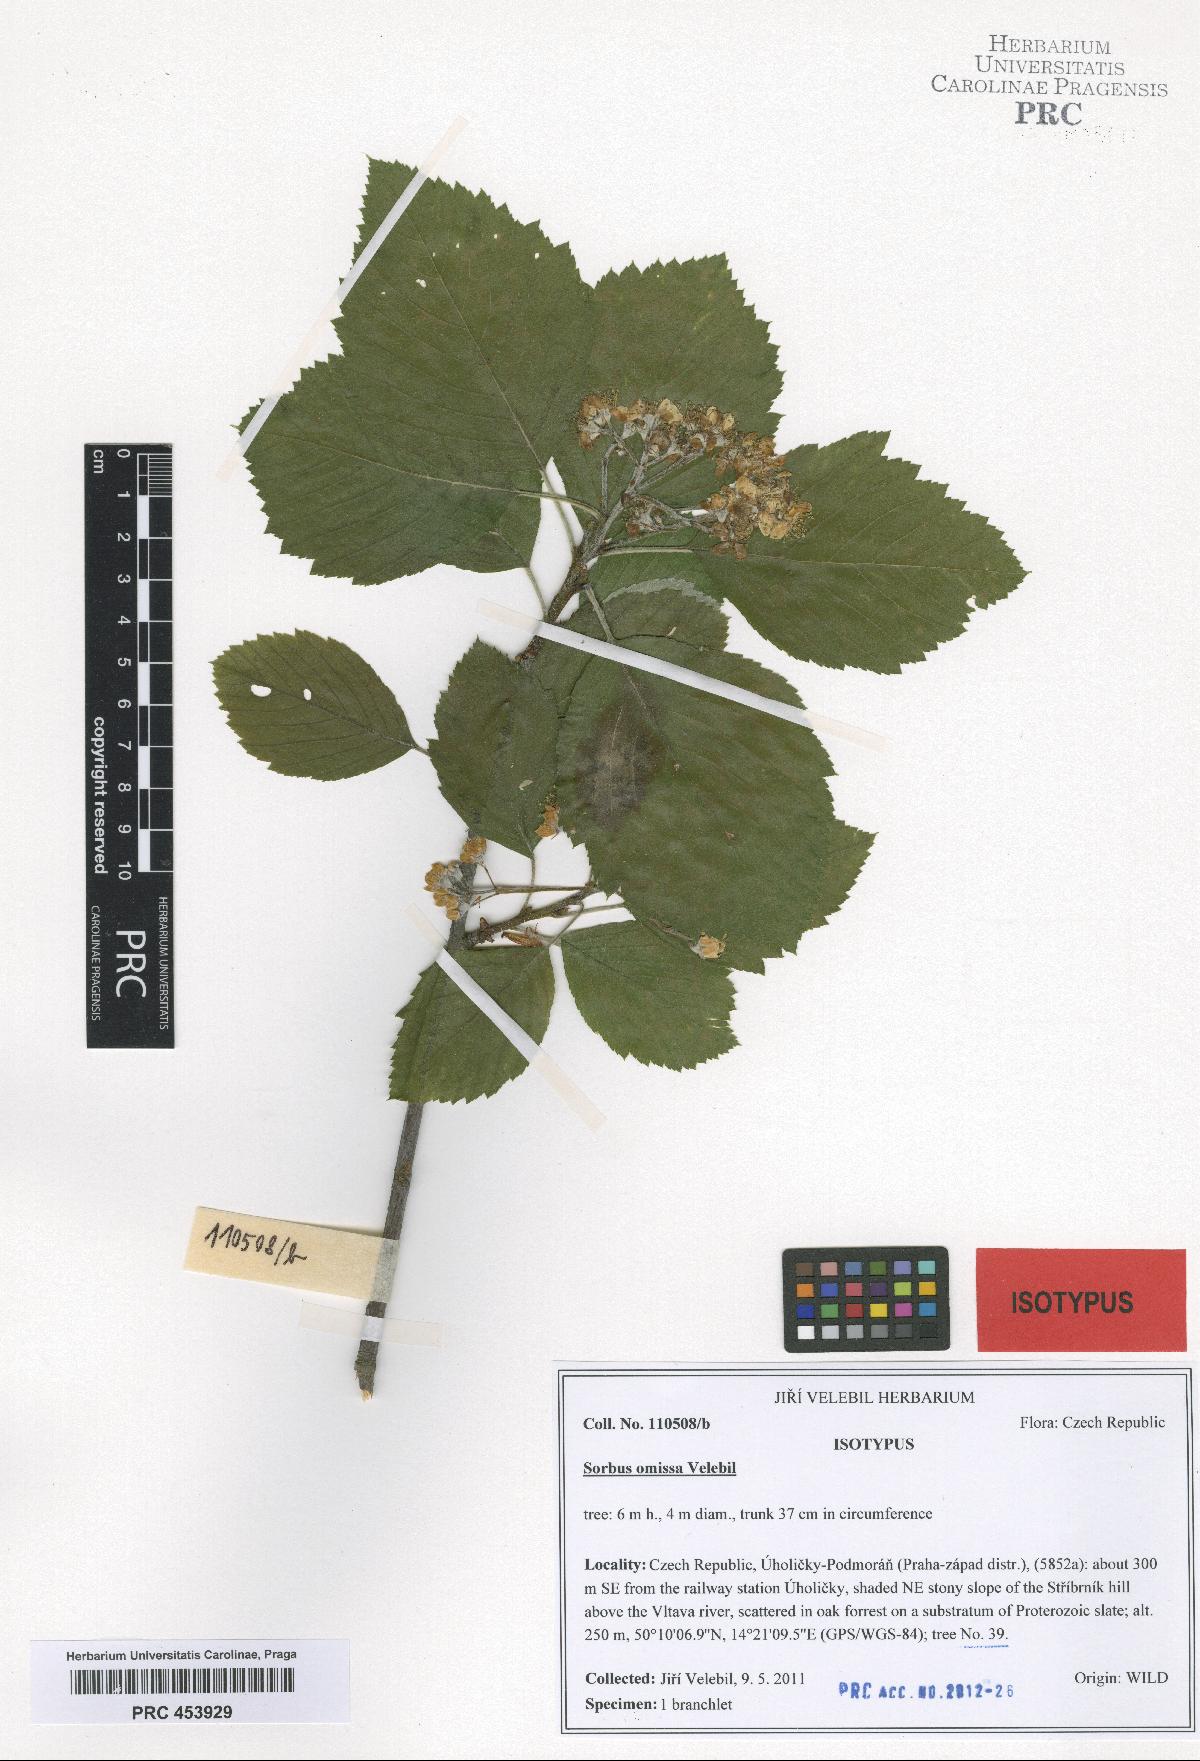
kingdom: Plantae
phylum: Tracheophyta
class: Magnoliopsida
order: Rosales
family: Rosaceae
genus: Karpatiosorbus
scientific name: Karpatiosorbus omissa
